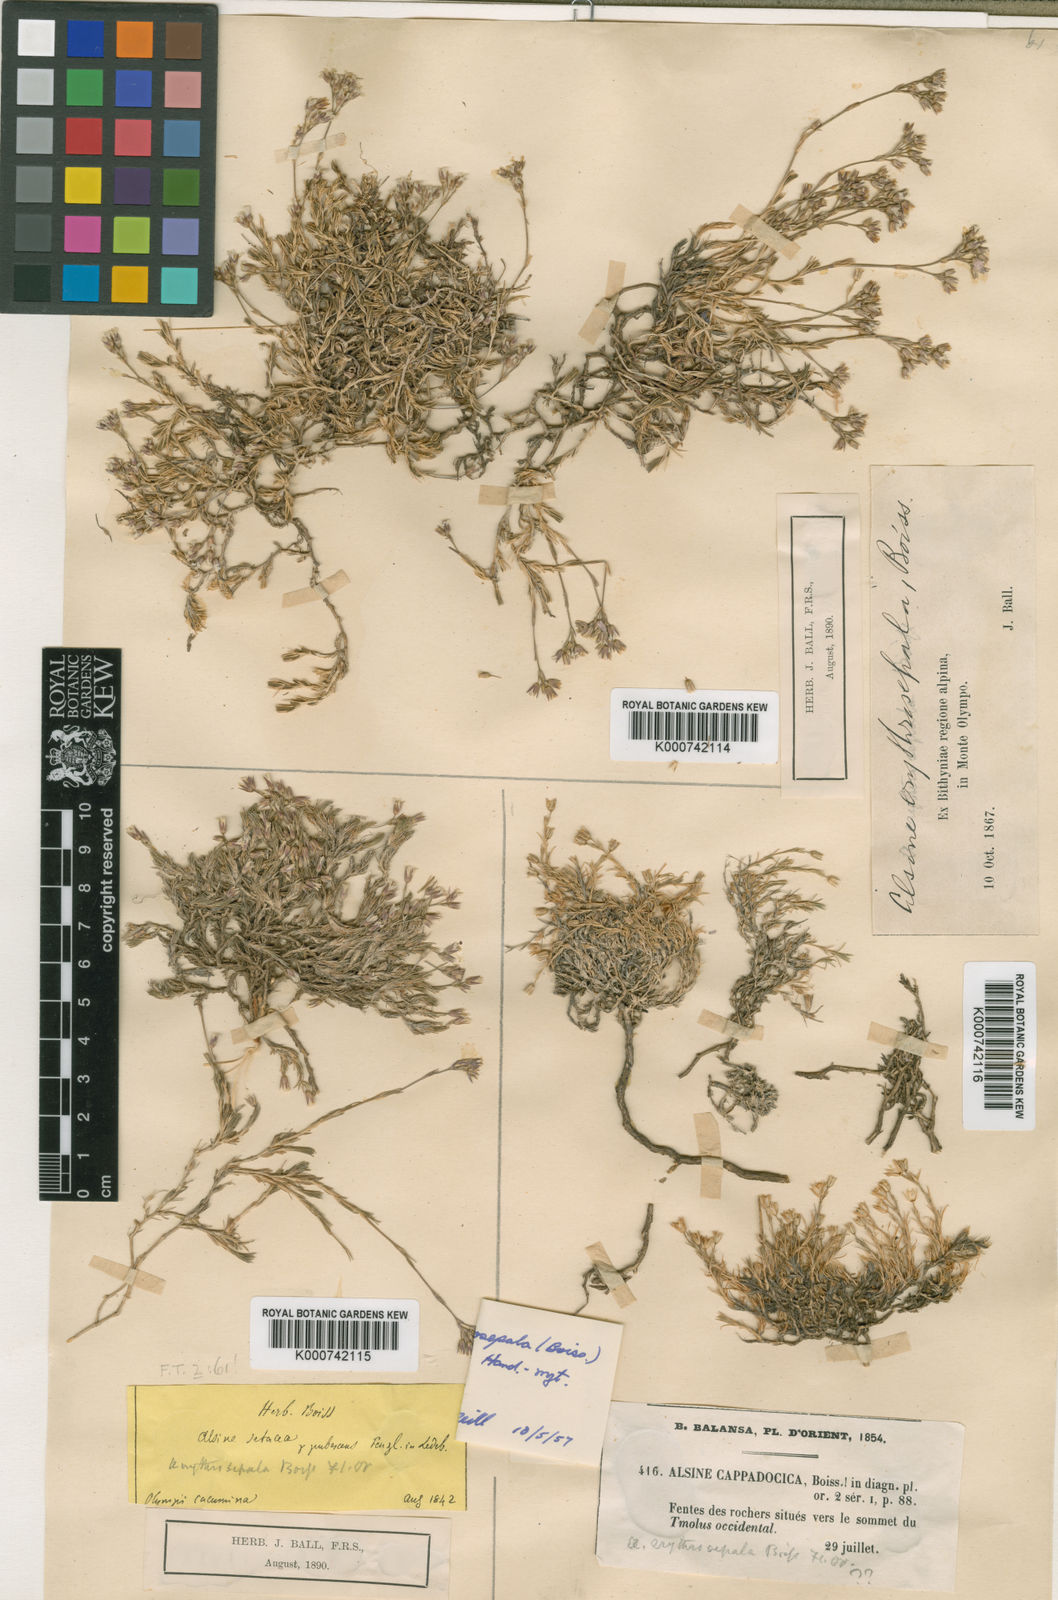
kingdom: Plantae
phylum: Tracheophyta
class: Magnoliopsida
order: Caryophyllales
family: Caryophyllaceae
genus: Minuartia
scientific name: Minuartia erythrosepala
